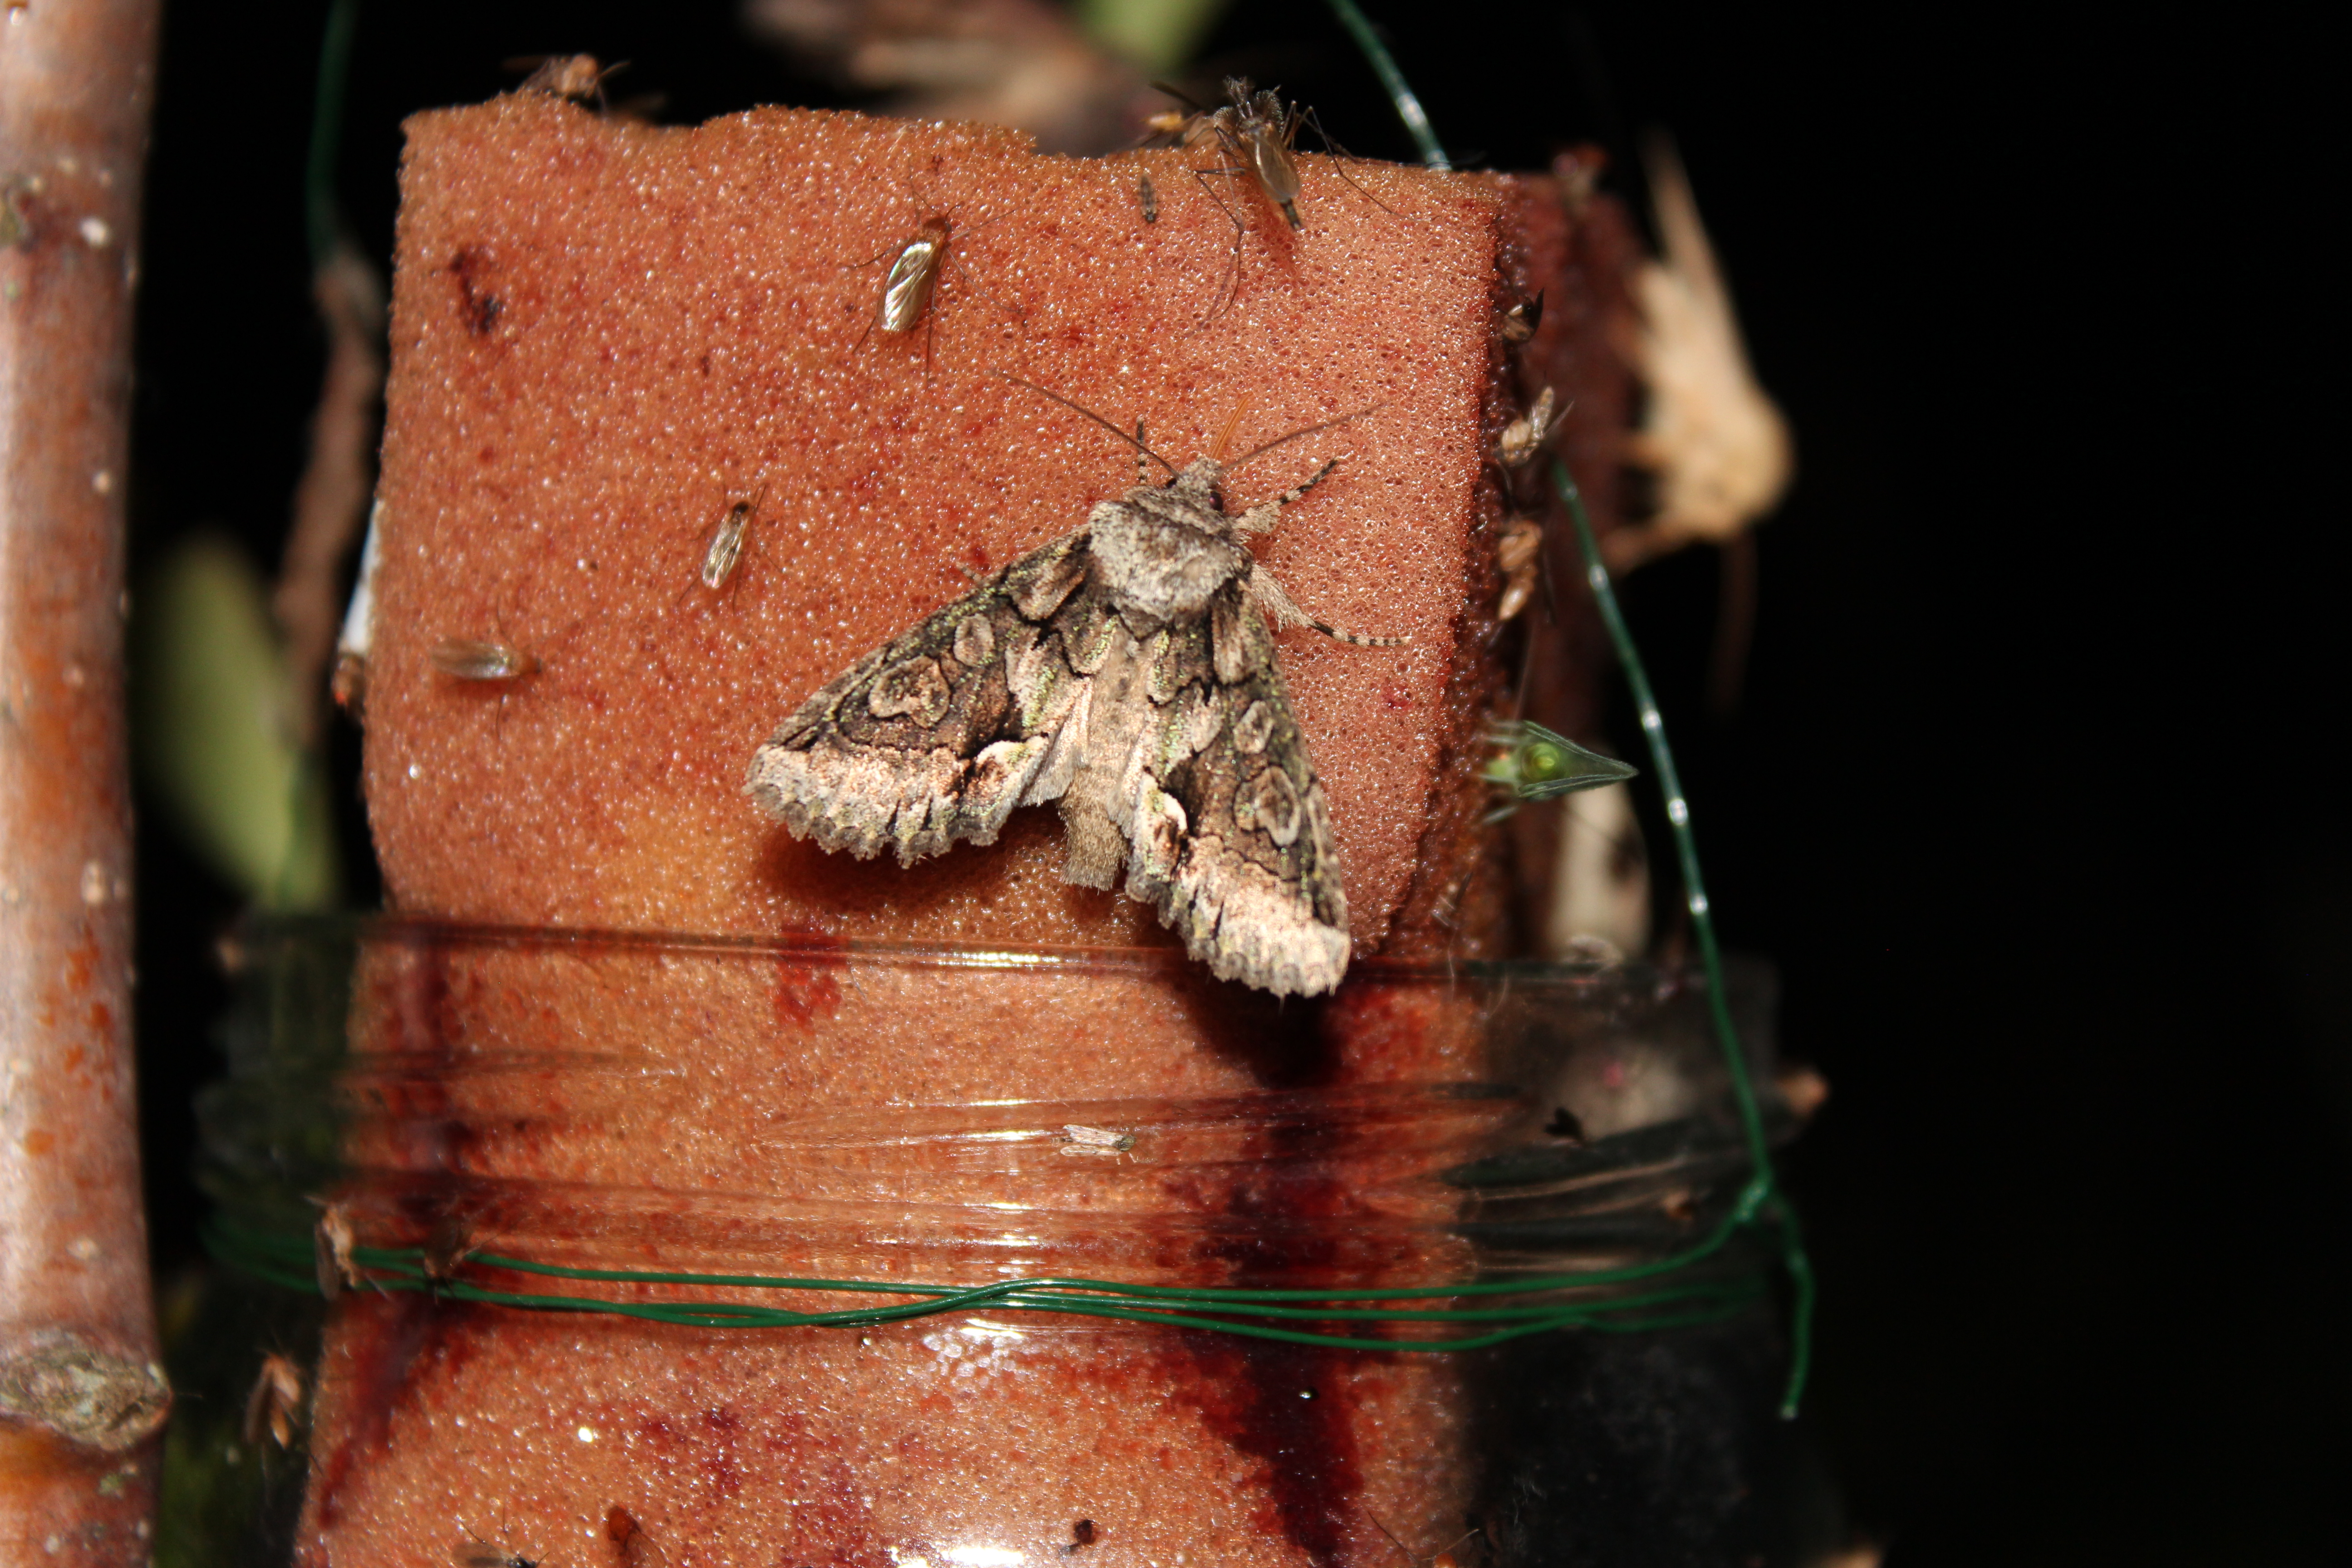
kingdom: Animalia
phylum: Arthropoda
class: Insecta
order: Lepidoptera
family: Noctuidae
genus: Allophyes
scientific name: Allophyes oxyacanthae
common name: Green-brindled crescent
